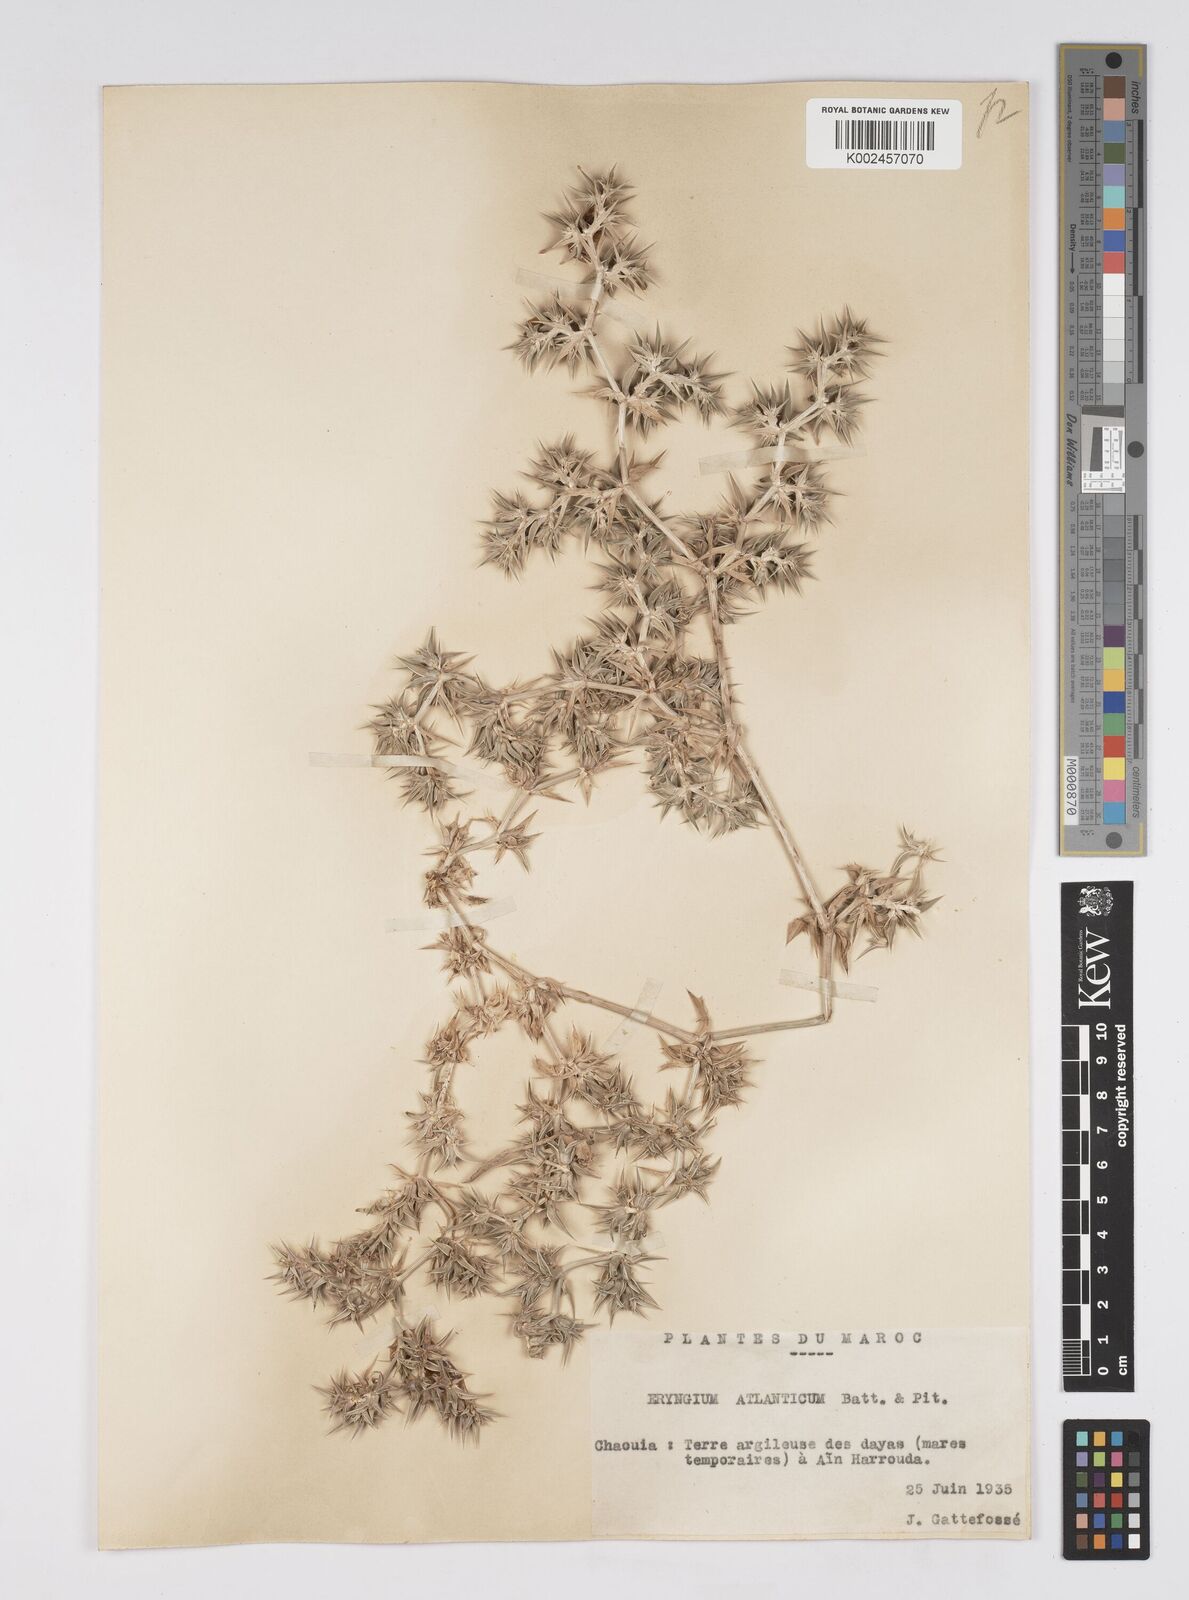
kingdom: Plantae
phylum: Tracheophyta
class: Magnoliopsida
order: Apiales
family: Apiaceae
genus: Eryngium
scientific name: Eryngium atlanticum
